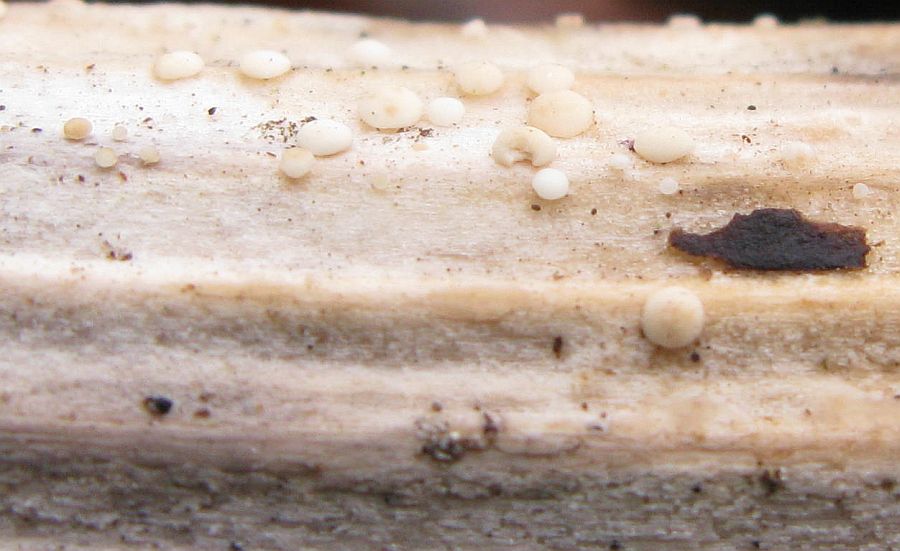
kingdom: Fungi
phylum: Ascomycota
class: Leotiomycetes
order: Helotiales
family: Pezizellaceae
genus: Calycina
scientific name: Calycina herbarum
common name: elfenbens-gulskive
